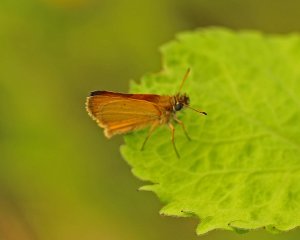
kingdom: Animalia
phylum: Arthropoda
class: Insecta
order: Lepidoptera
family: Hesperiidae
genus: Ancyloxypha
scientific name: Ancyloxypha numitor
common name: Least Skipper
